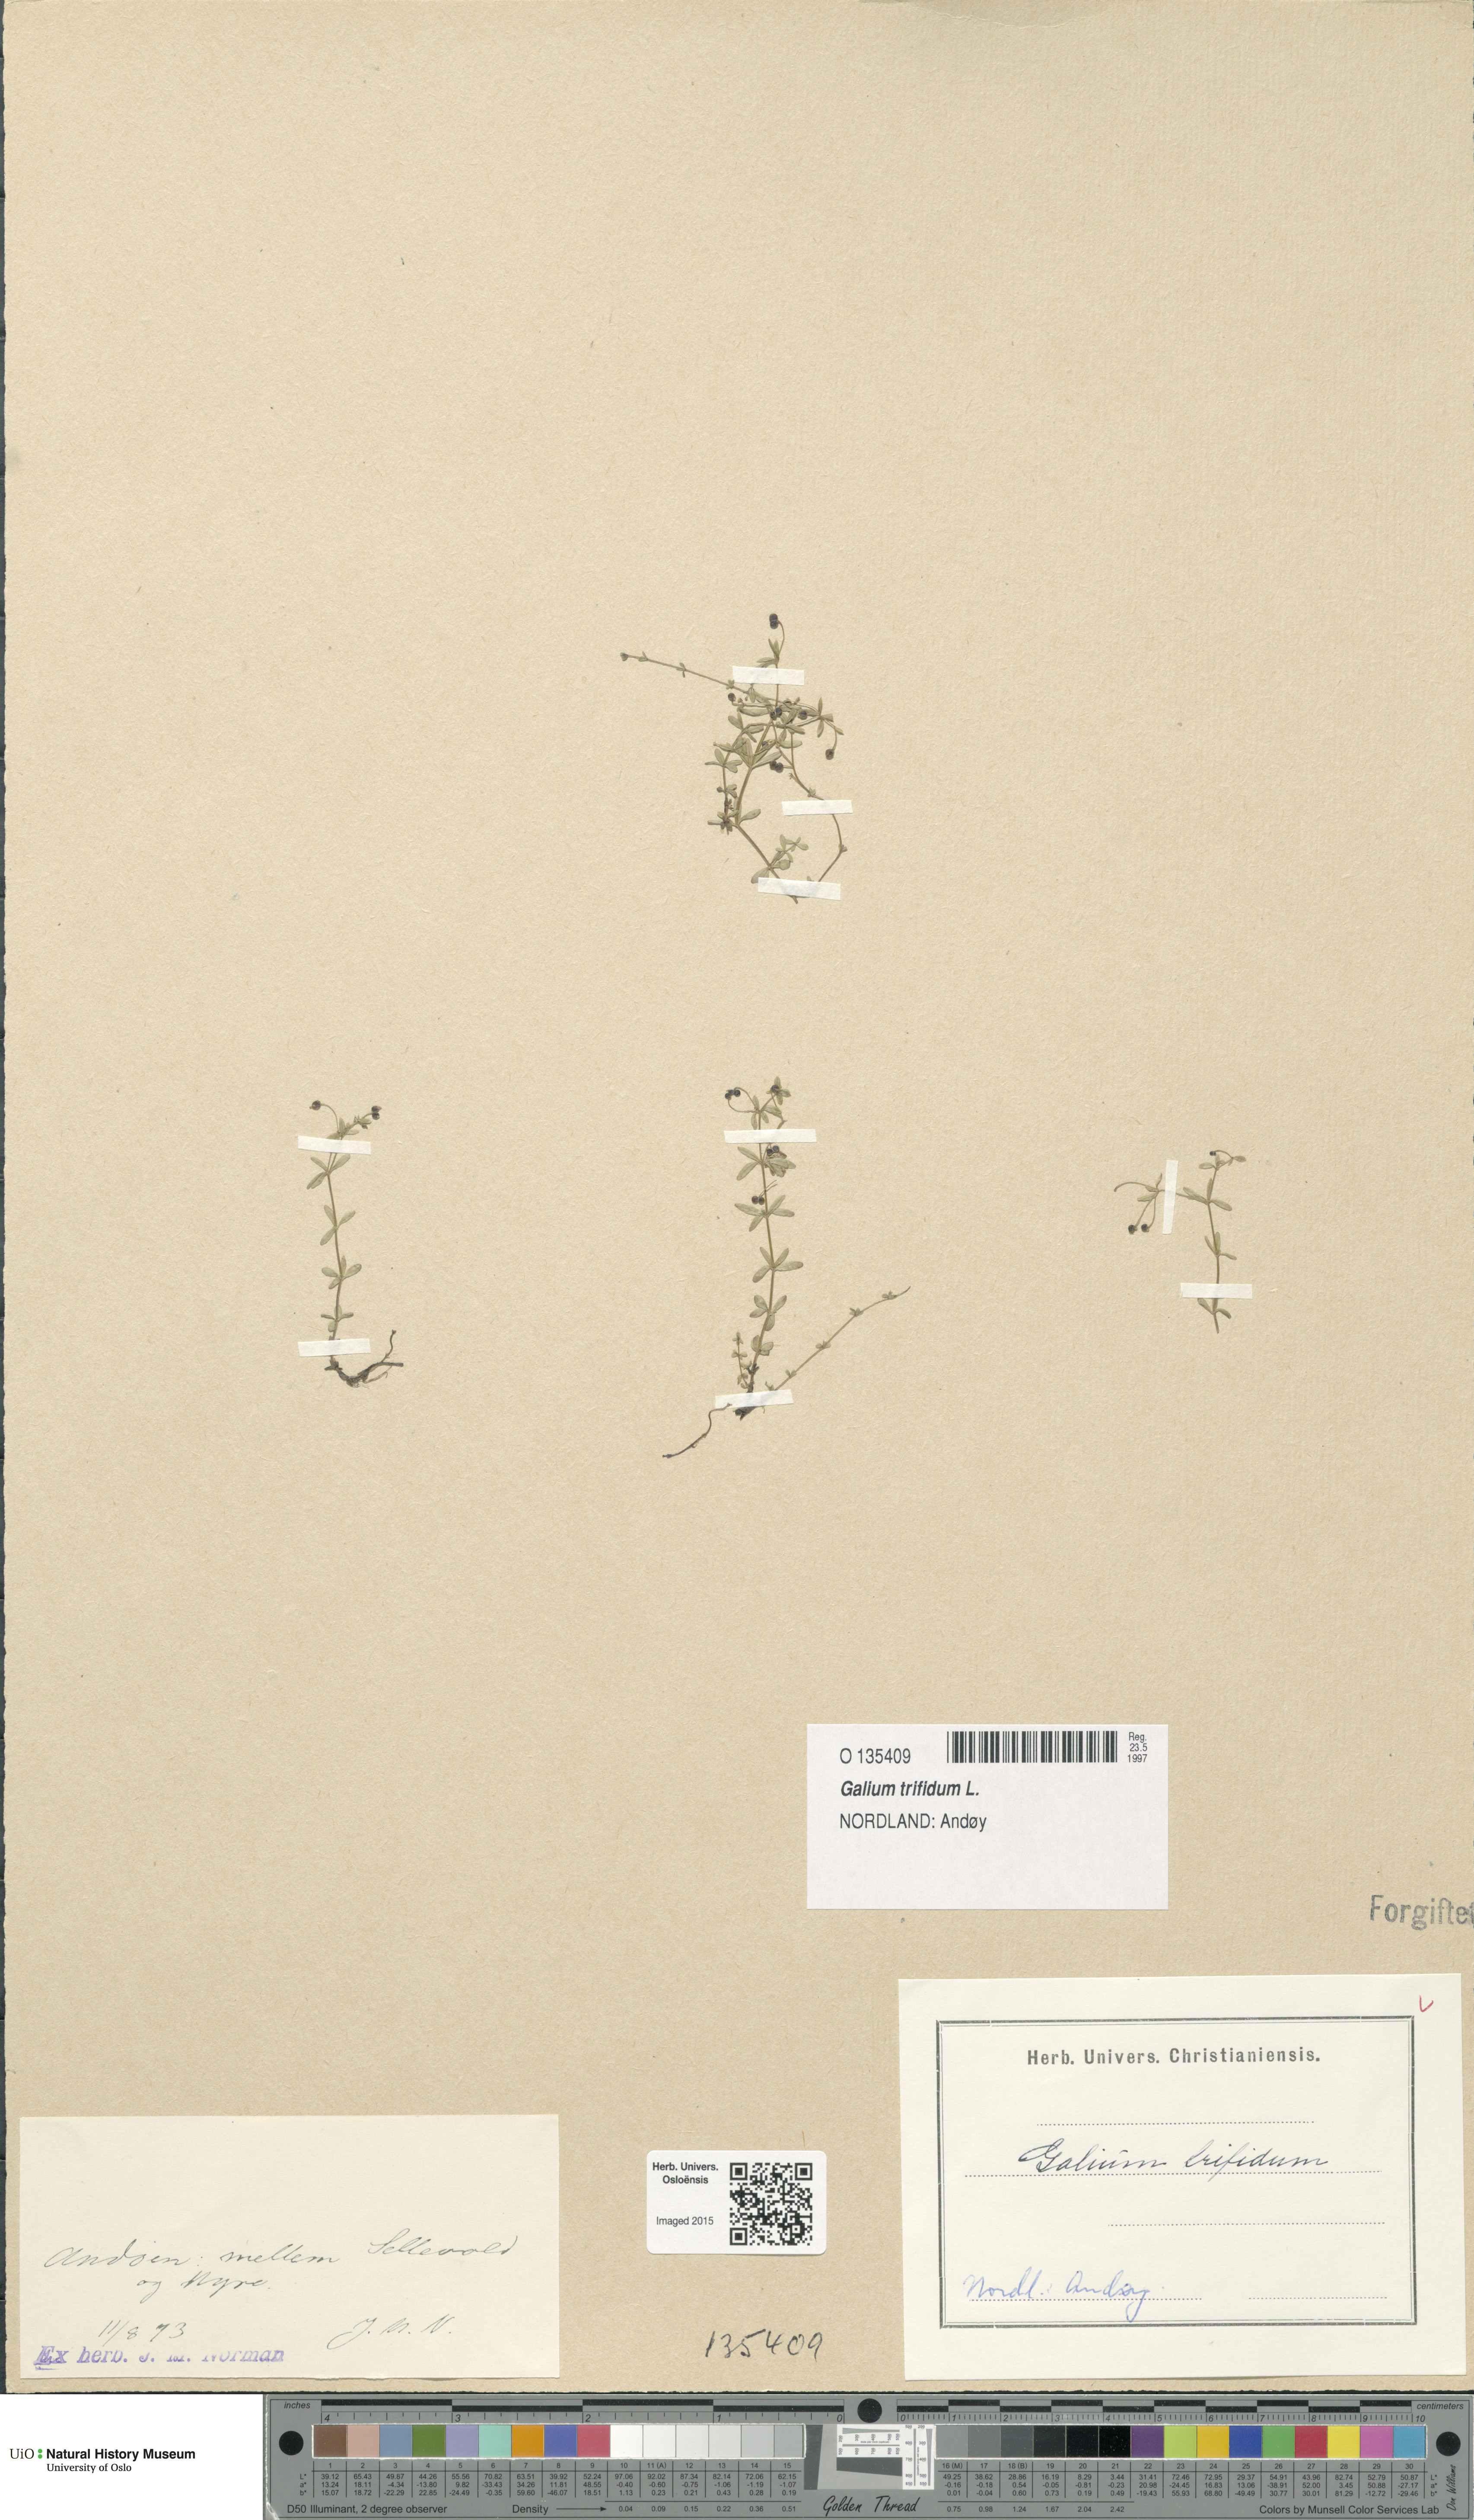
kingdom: Plantae
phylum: Tracheophyta
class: Magnoliopsida
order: Gentianales
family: Rubiaceae
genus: Galium
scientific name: Galium trifidum
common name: Small bedstraw
